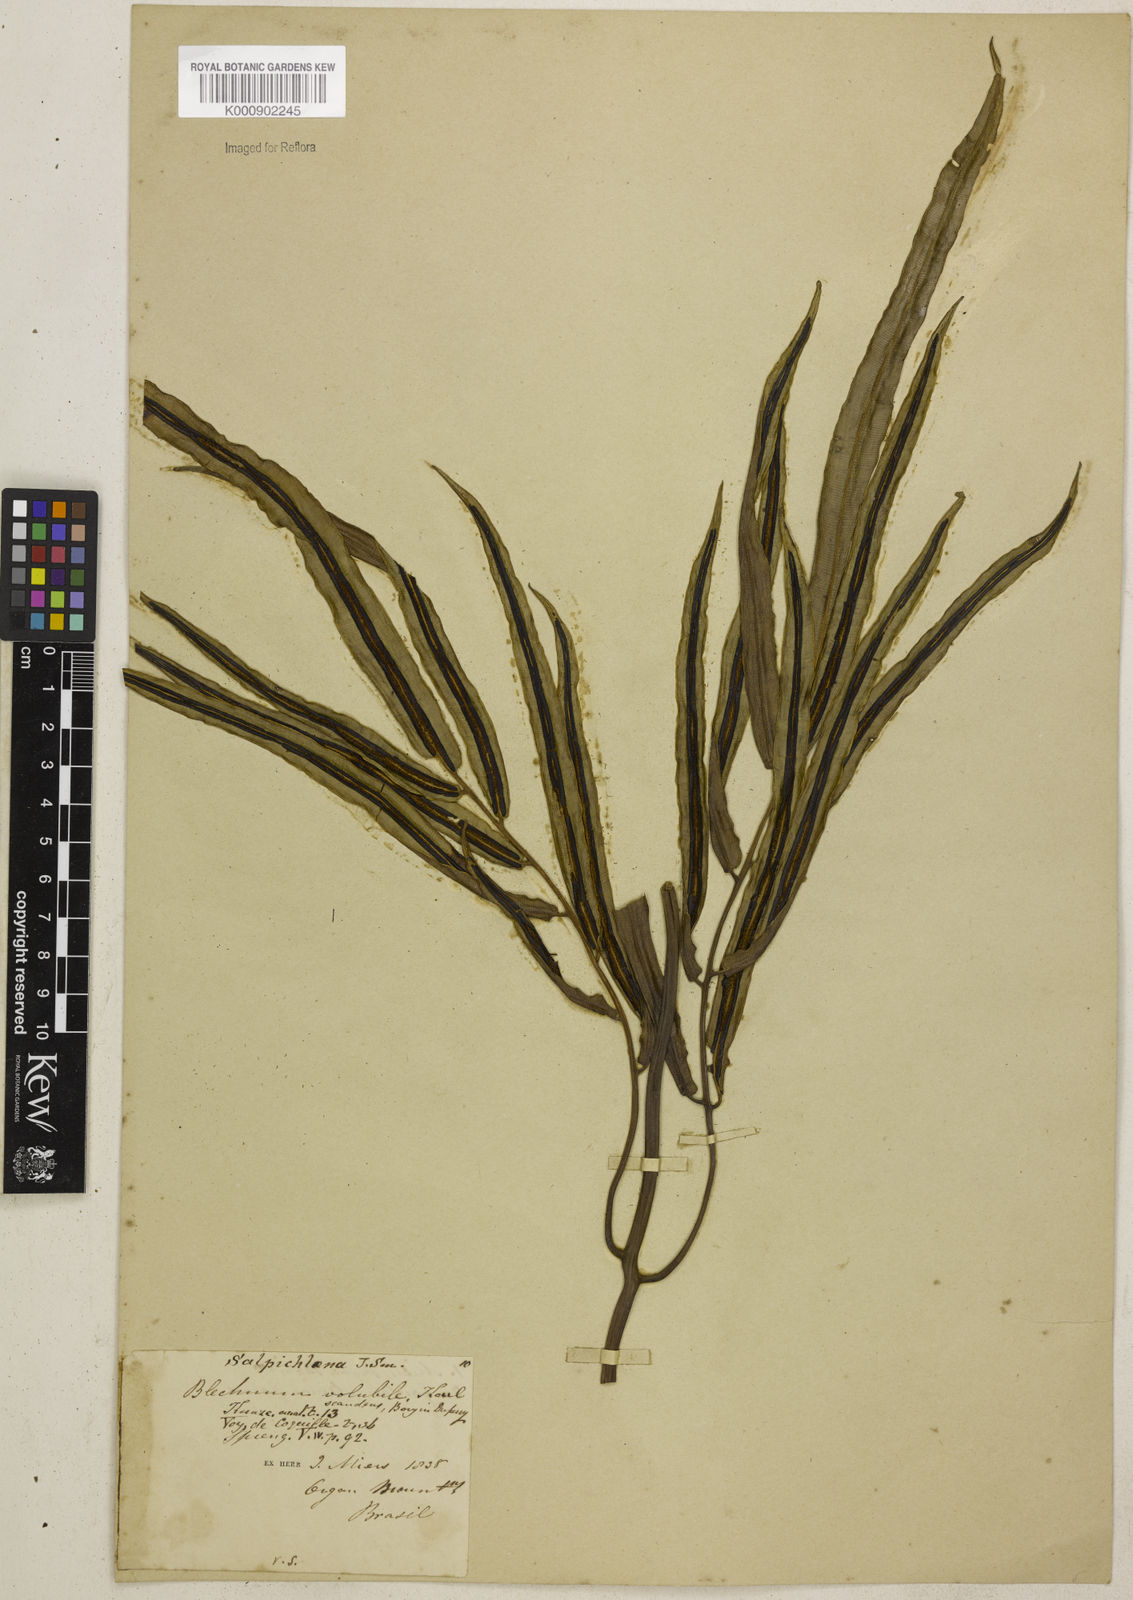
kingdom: Plantae
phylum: Tracheophyta
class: Polypodiopsida
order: Polypodiales
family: Blechnaceae
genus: Salpichlaena
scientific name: Salpichlaena volubilis
